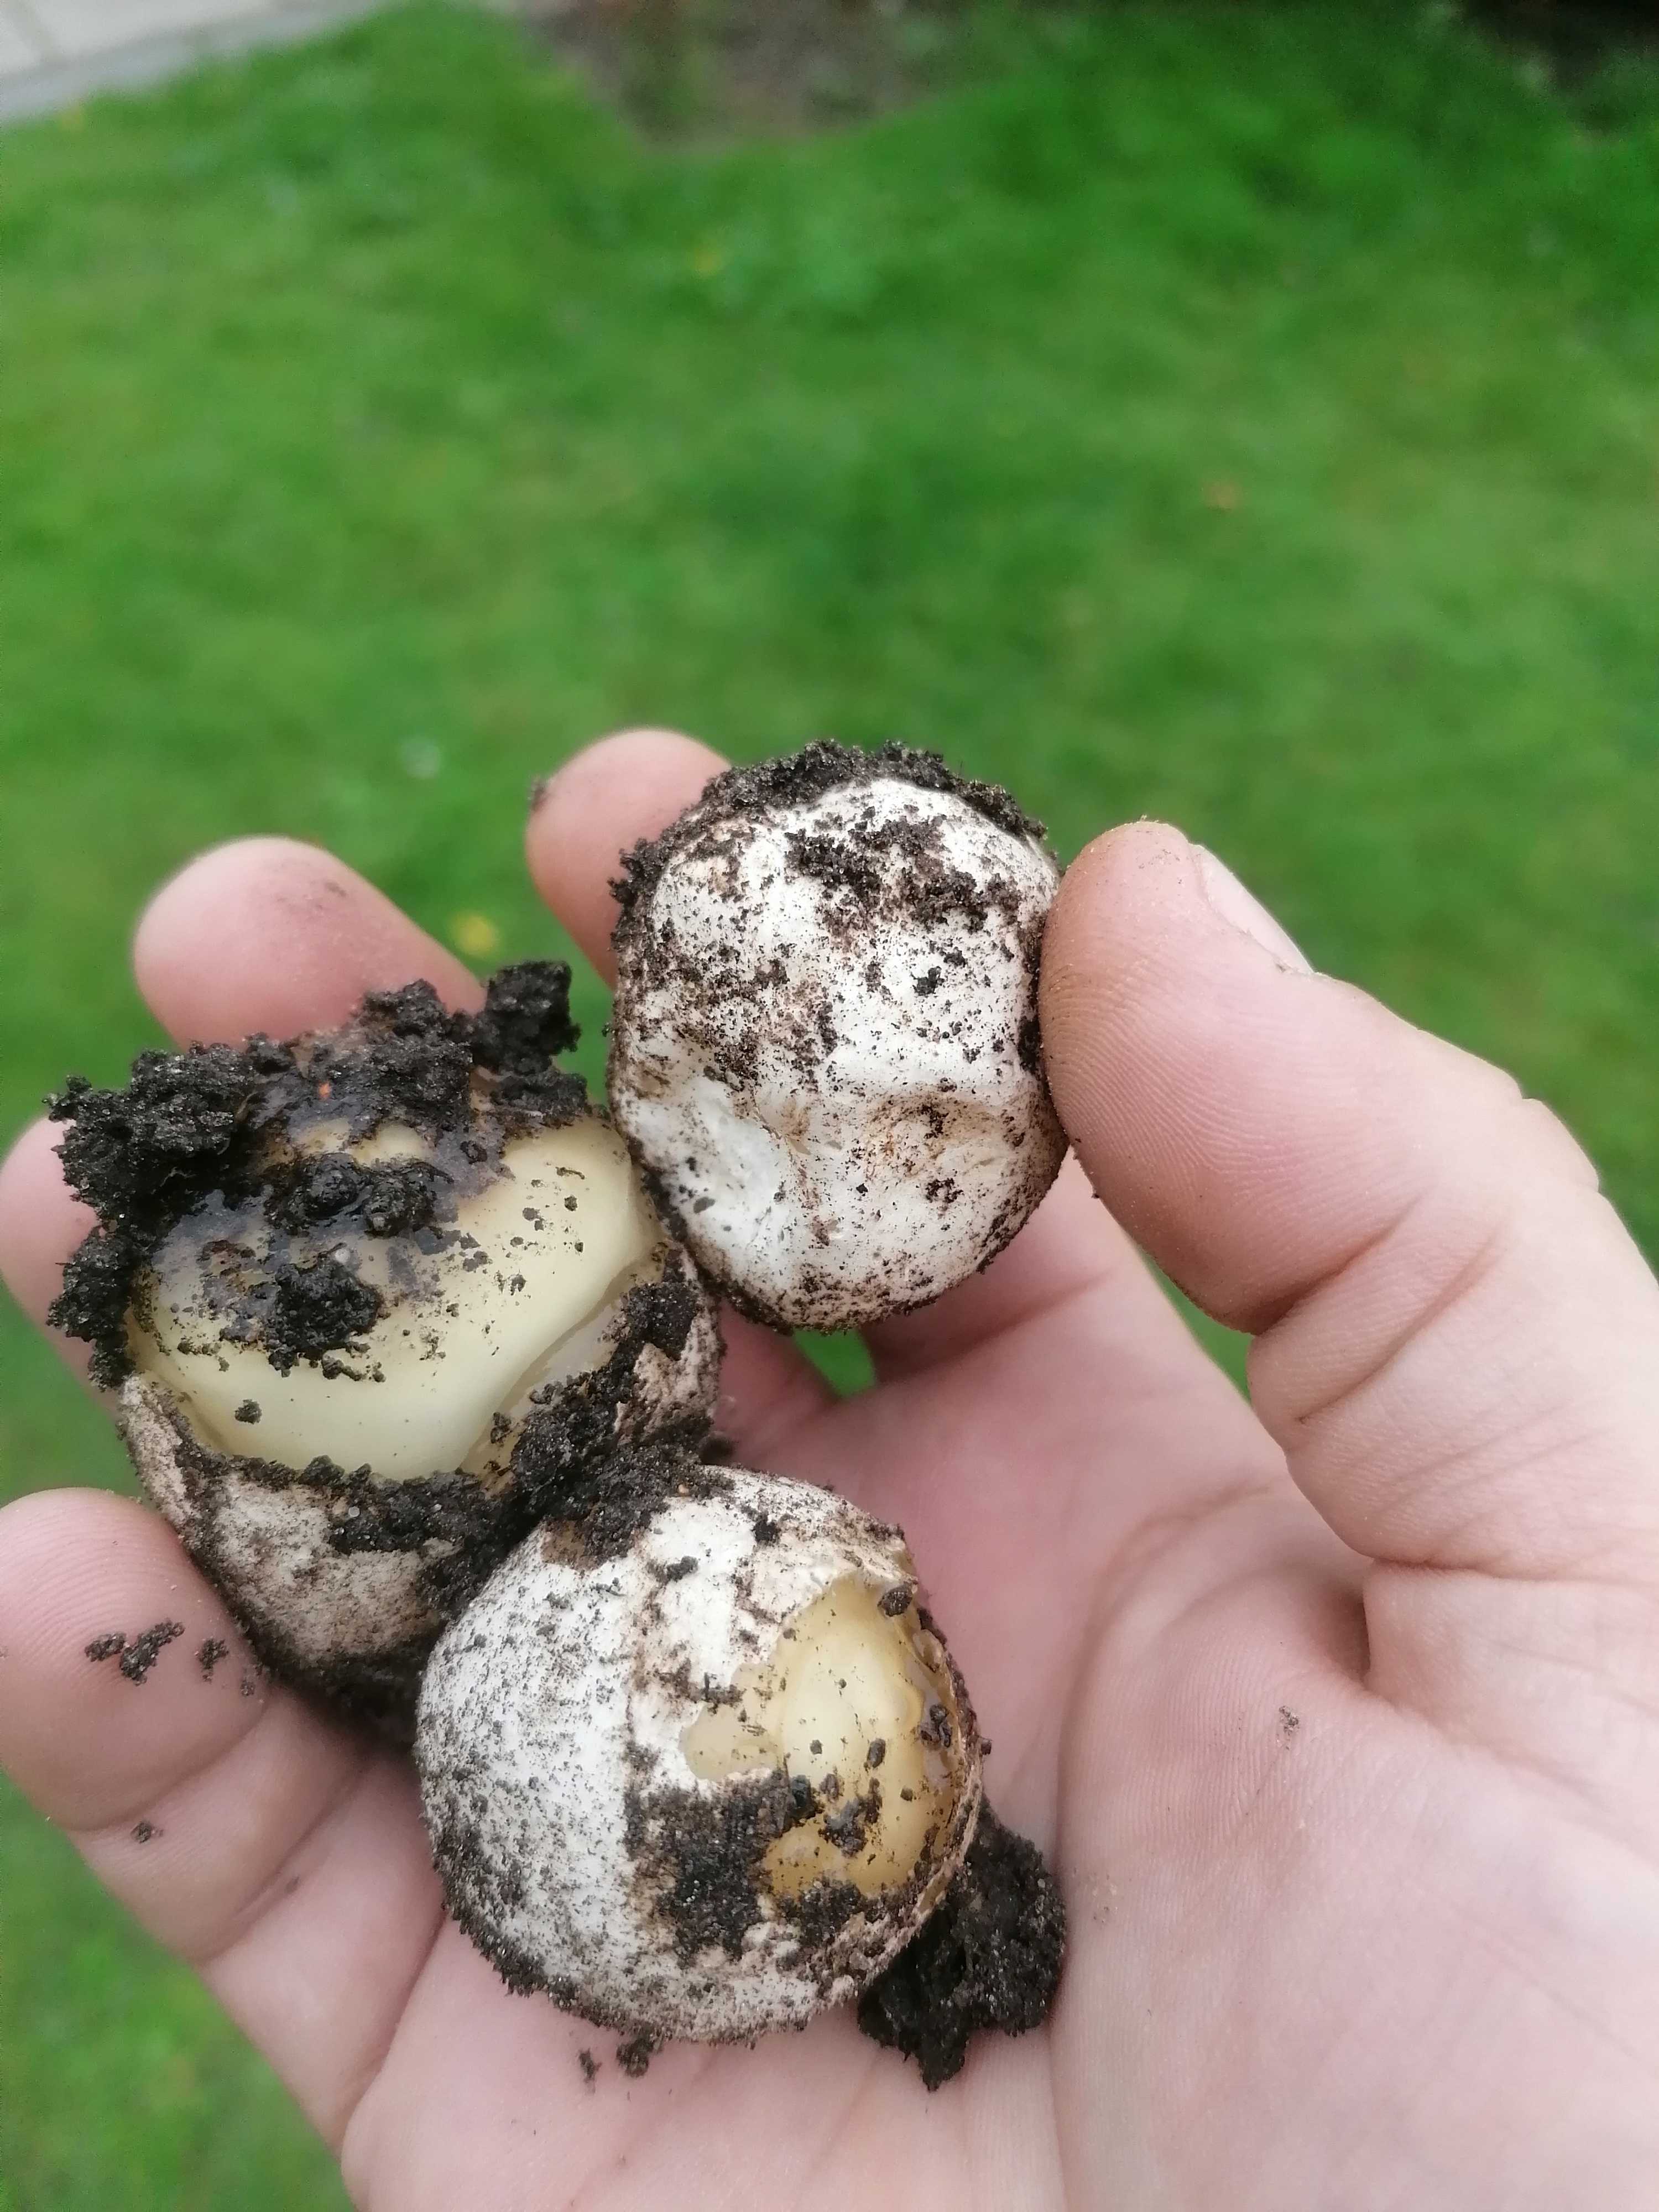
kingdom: Fungi
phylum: Basidiomycota
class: Agaricomycetes
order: Phallales
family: Phallaceae
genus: Phallus
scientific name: Phallus impudicus
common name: almindelig stinksvamp
